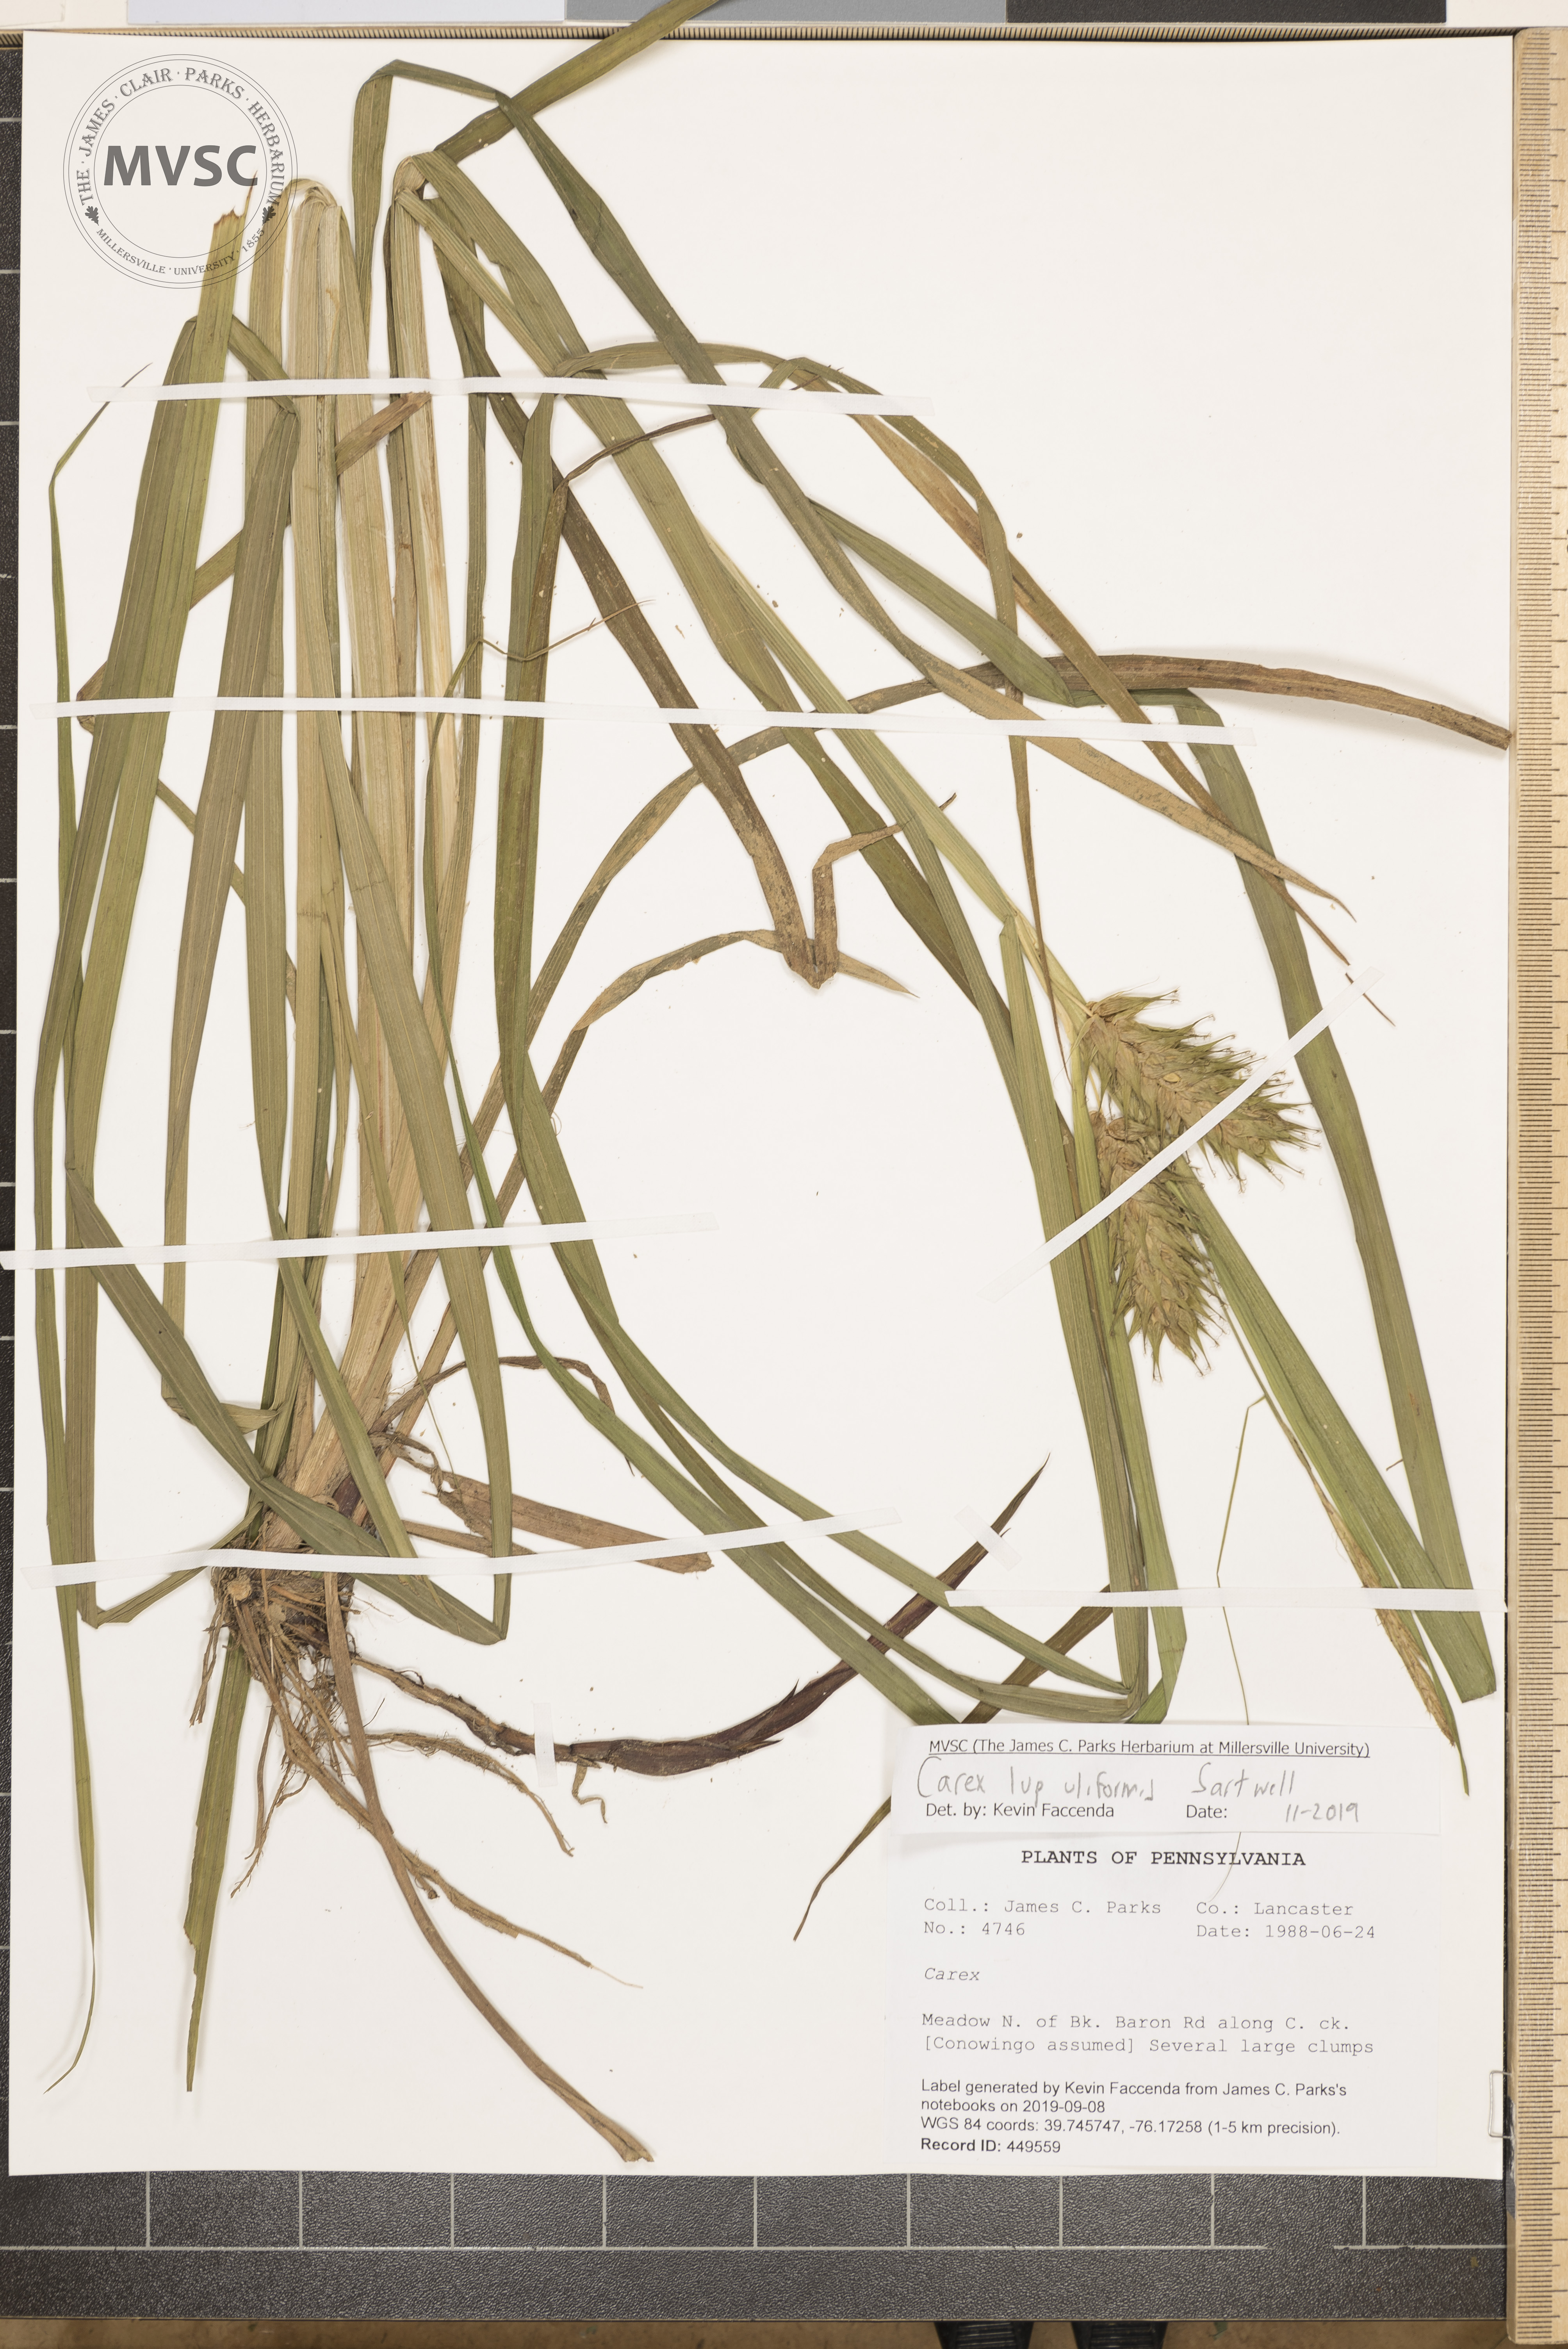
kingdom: Plantae
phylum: Tracheophyta
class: Liliopsida
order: Poales
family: Cyperaceae
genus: Carex
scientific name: Carex lupulina
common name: Hop sedge
